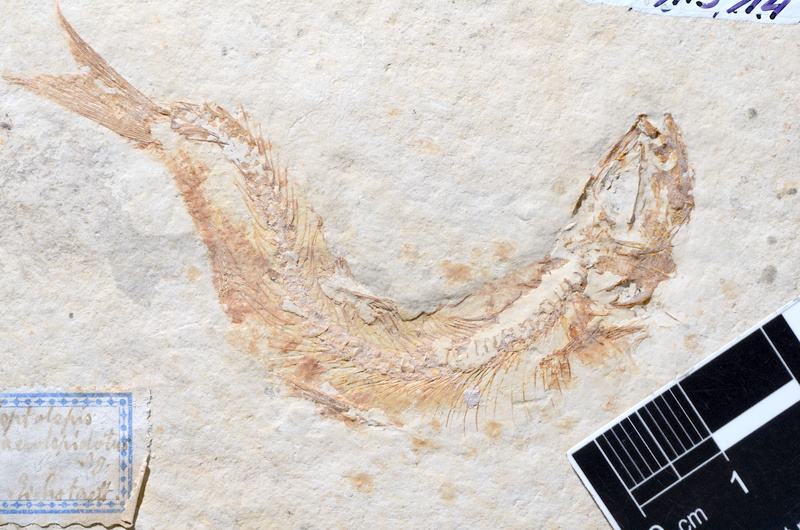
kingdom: Animalia
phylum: Chordata
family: Ascalaboidae
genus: Tharsis
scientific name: Tharsis dubius
